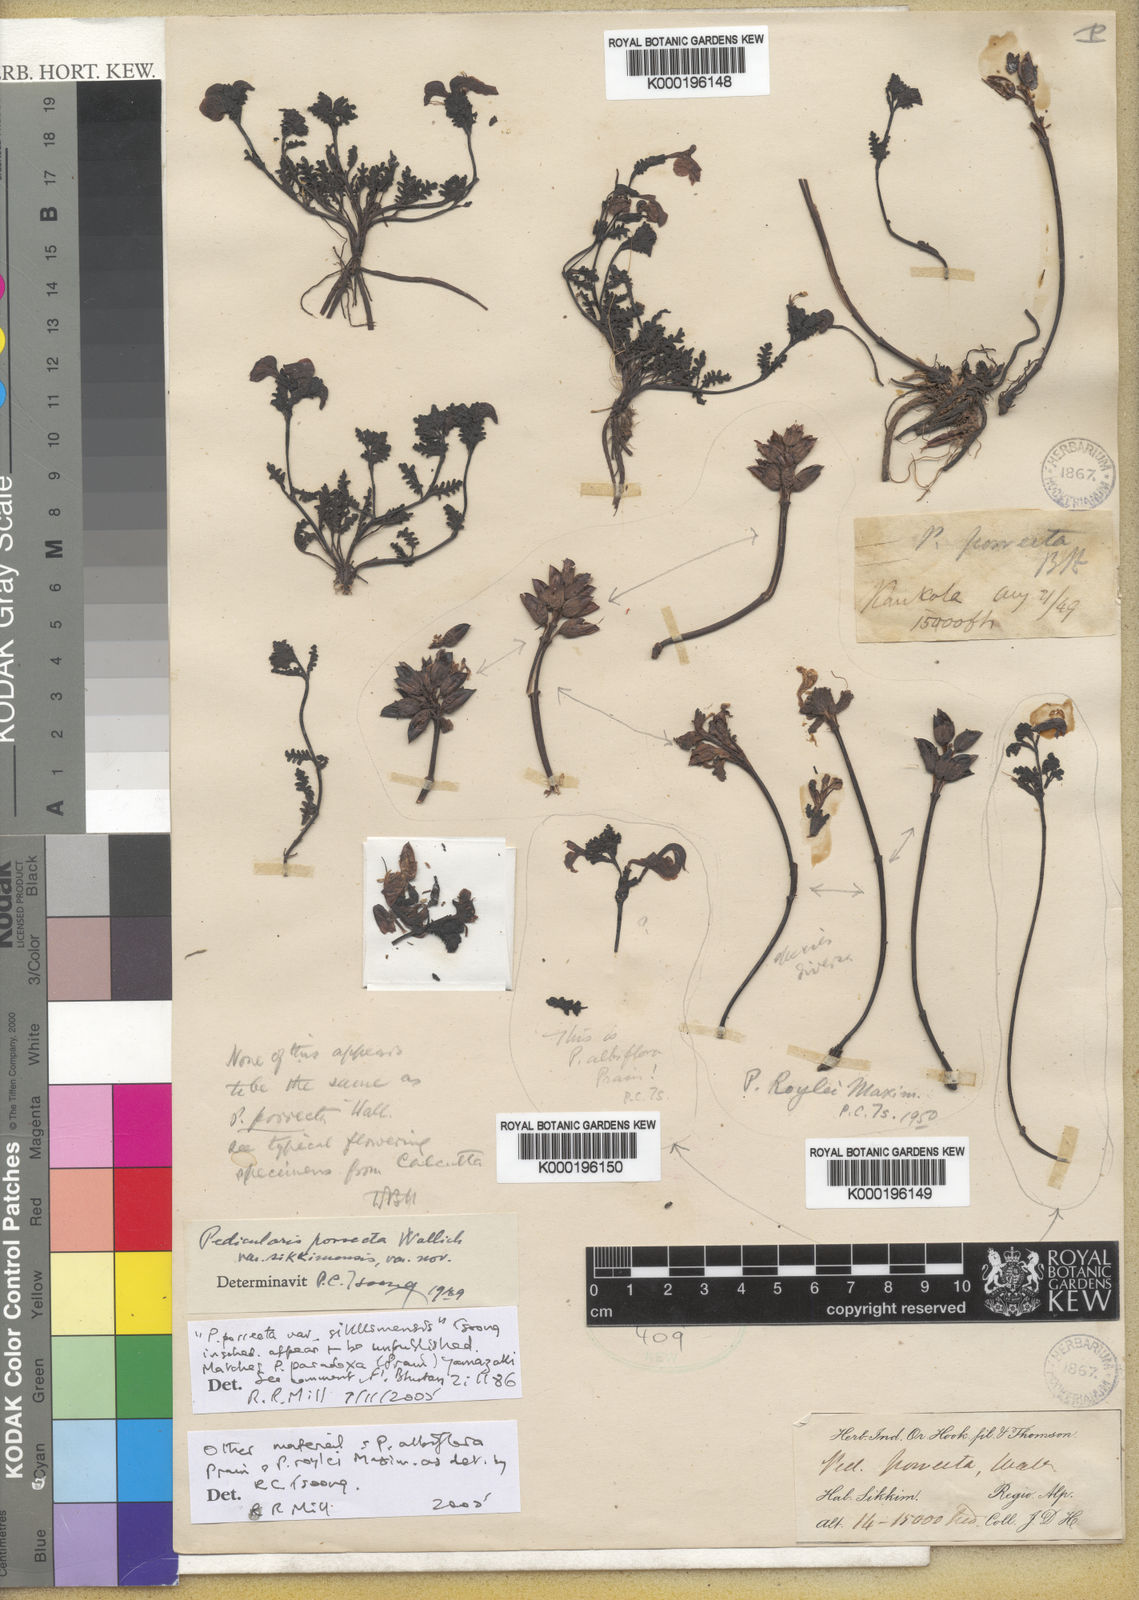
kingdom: Plantae
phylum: Tracheophyta
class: Magnoliopsida
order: Lamiales
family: Orobanchaceae
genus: Pedicularis
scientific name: Pedicularis
